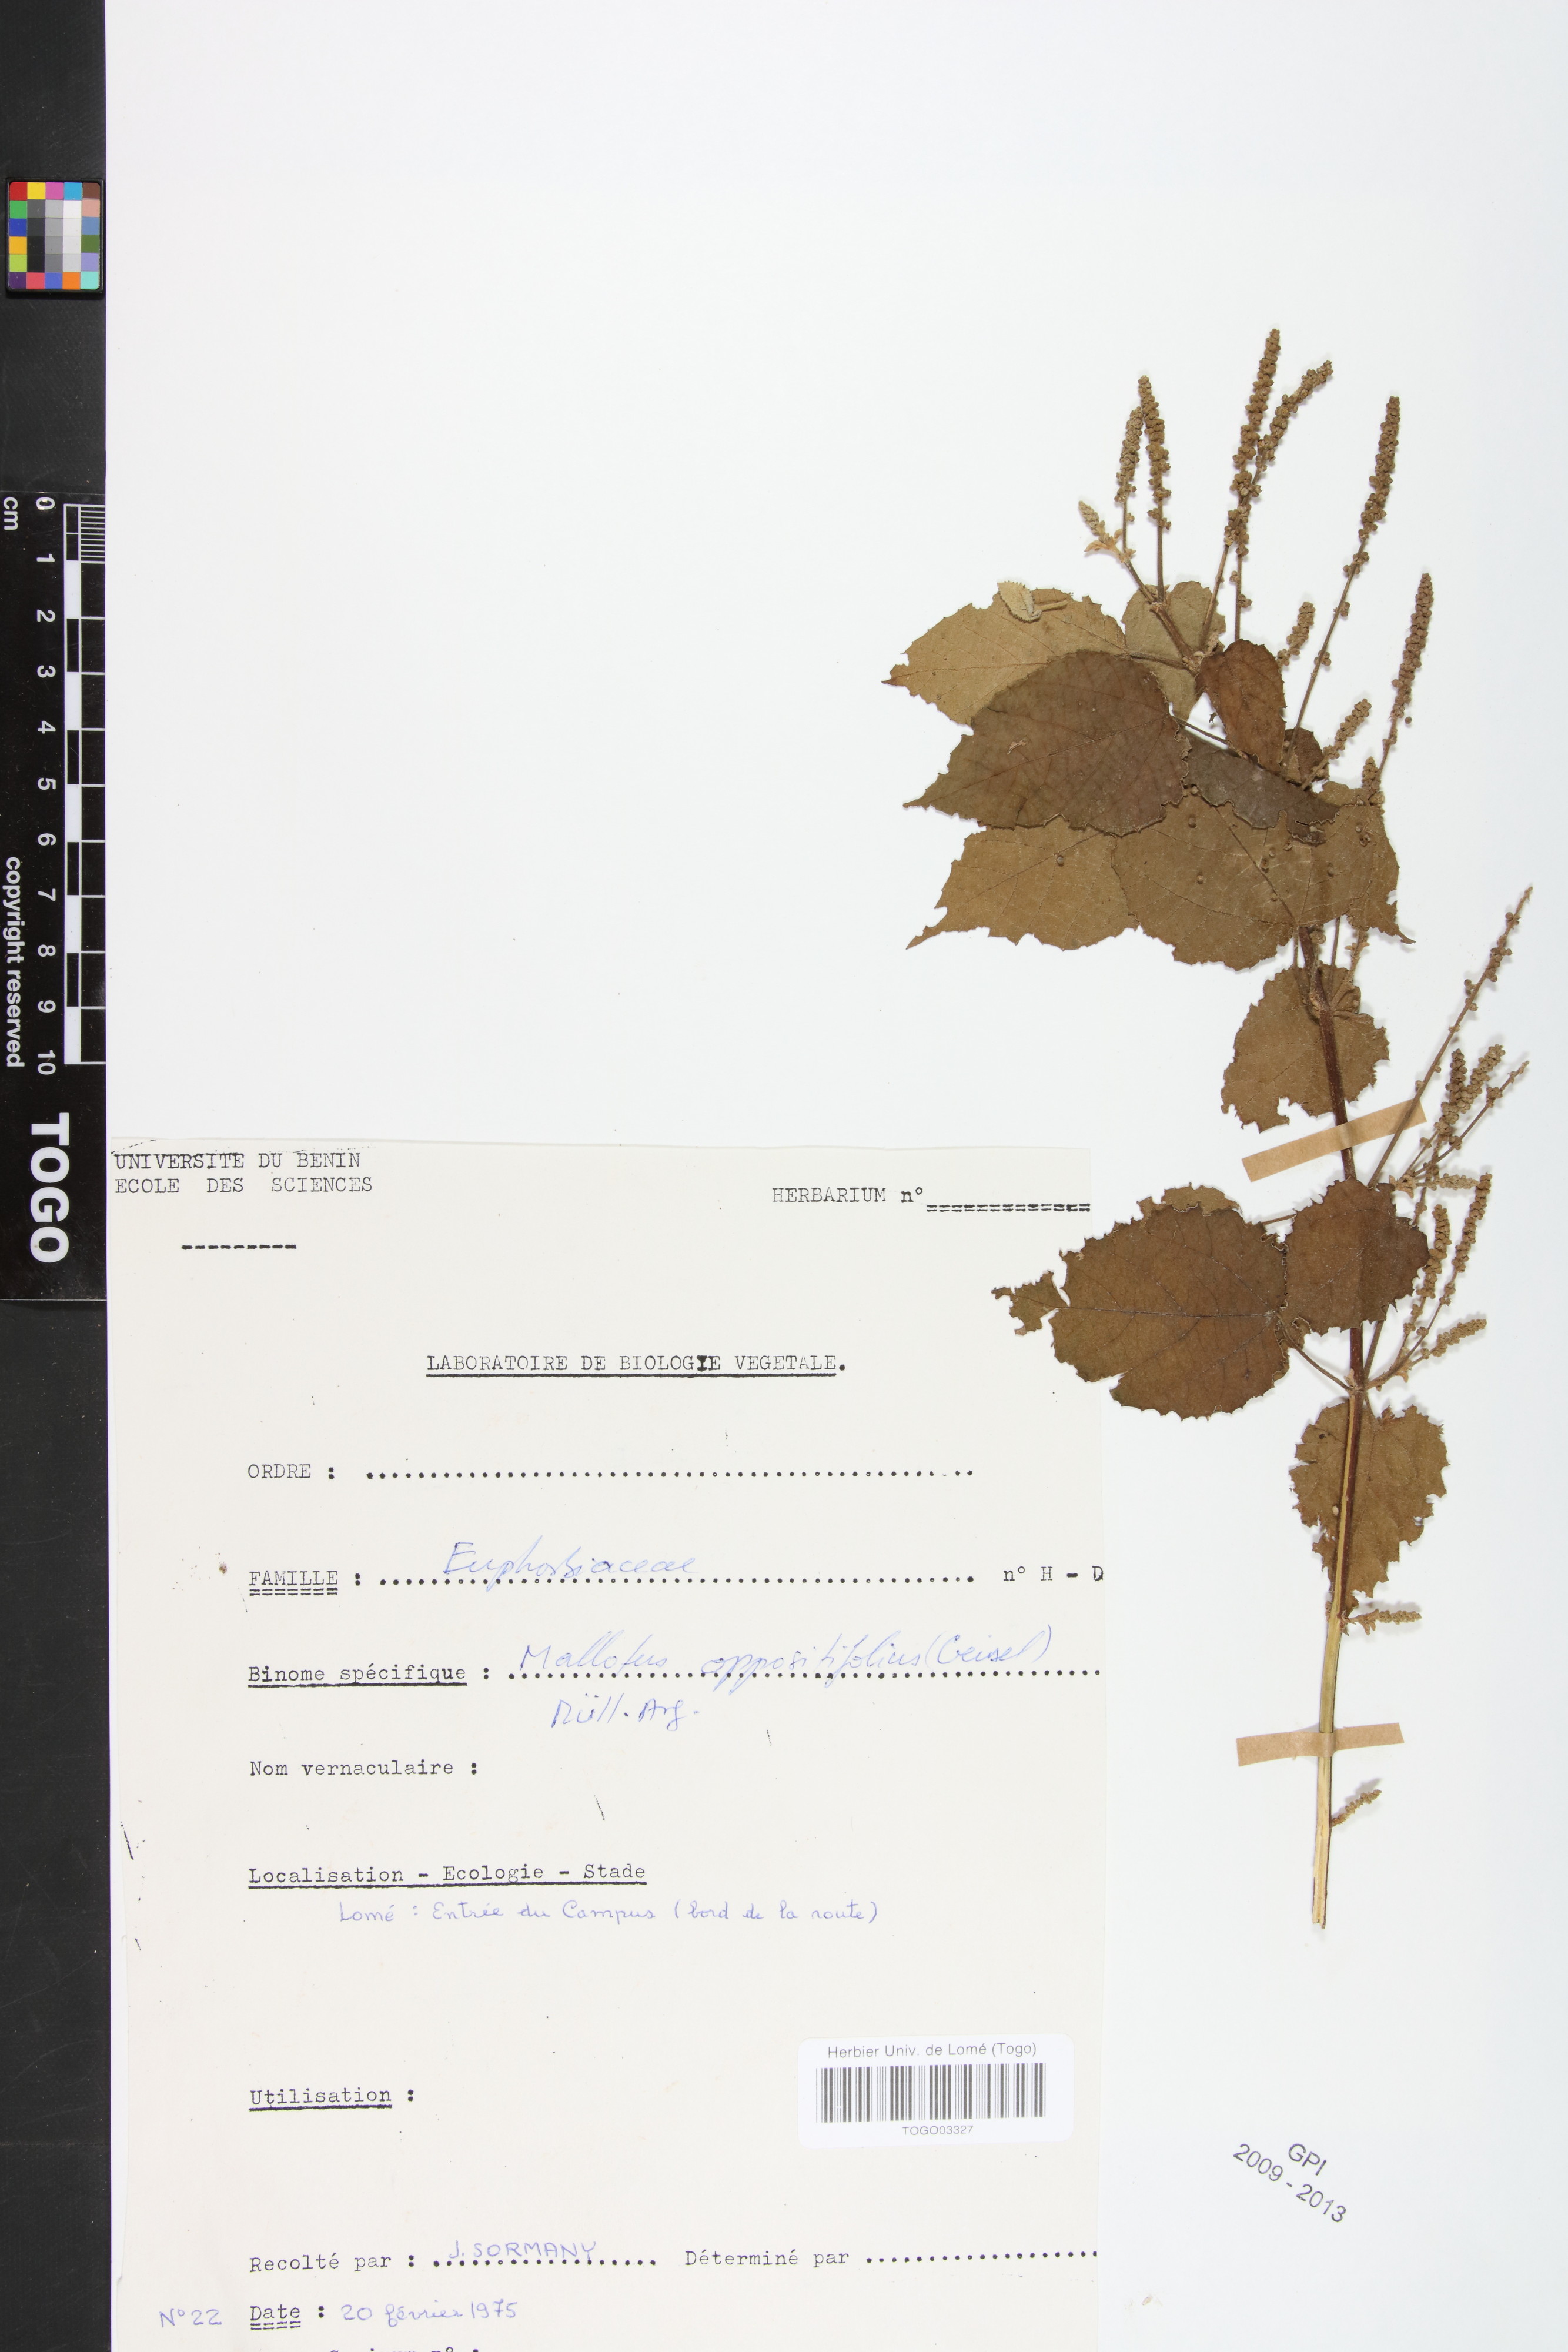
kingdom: Plantae
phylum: Tracheophyta
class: Magnoliopsida
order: Malpighiales
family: Euphorbiaceae
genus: Mallotus
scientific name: Mallotus oppositifolius
